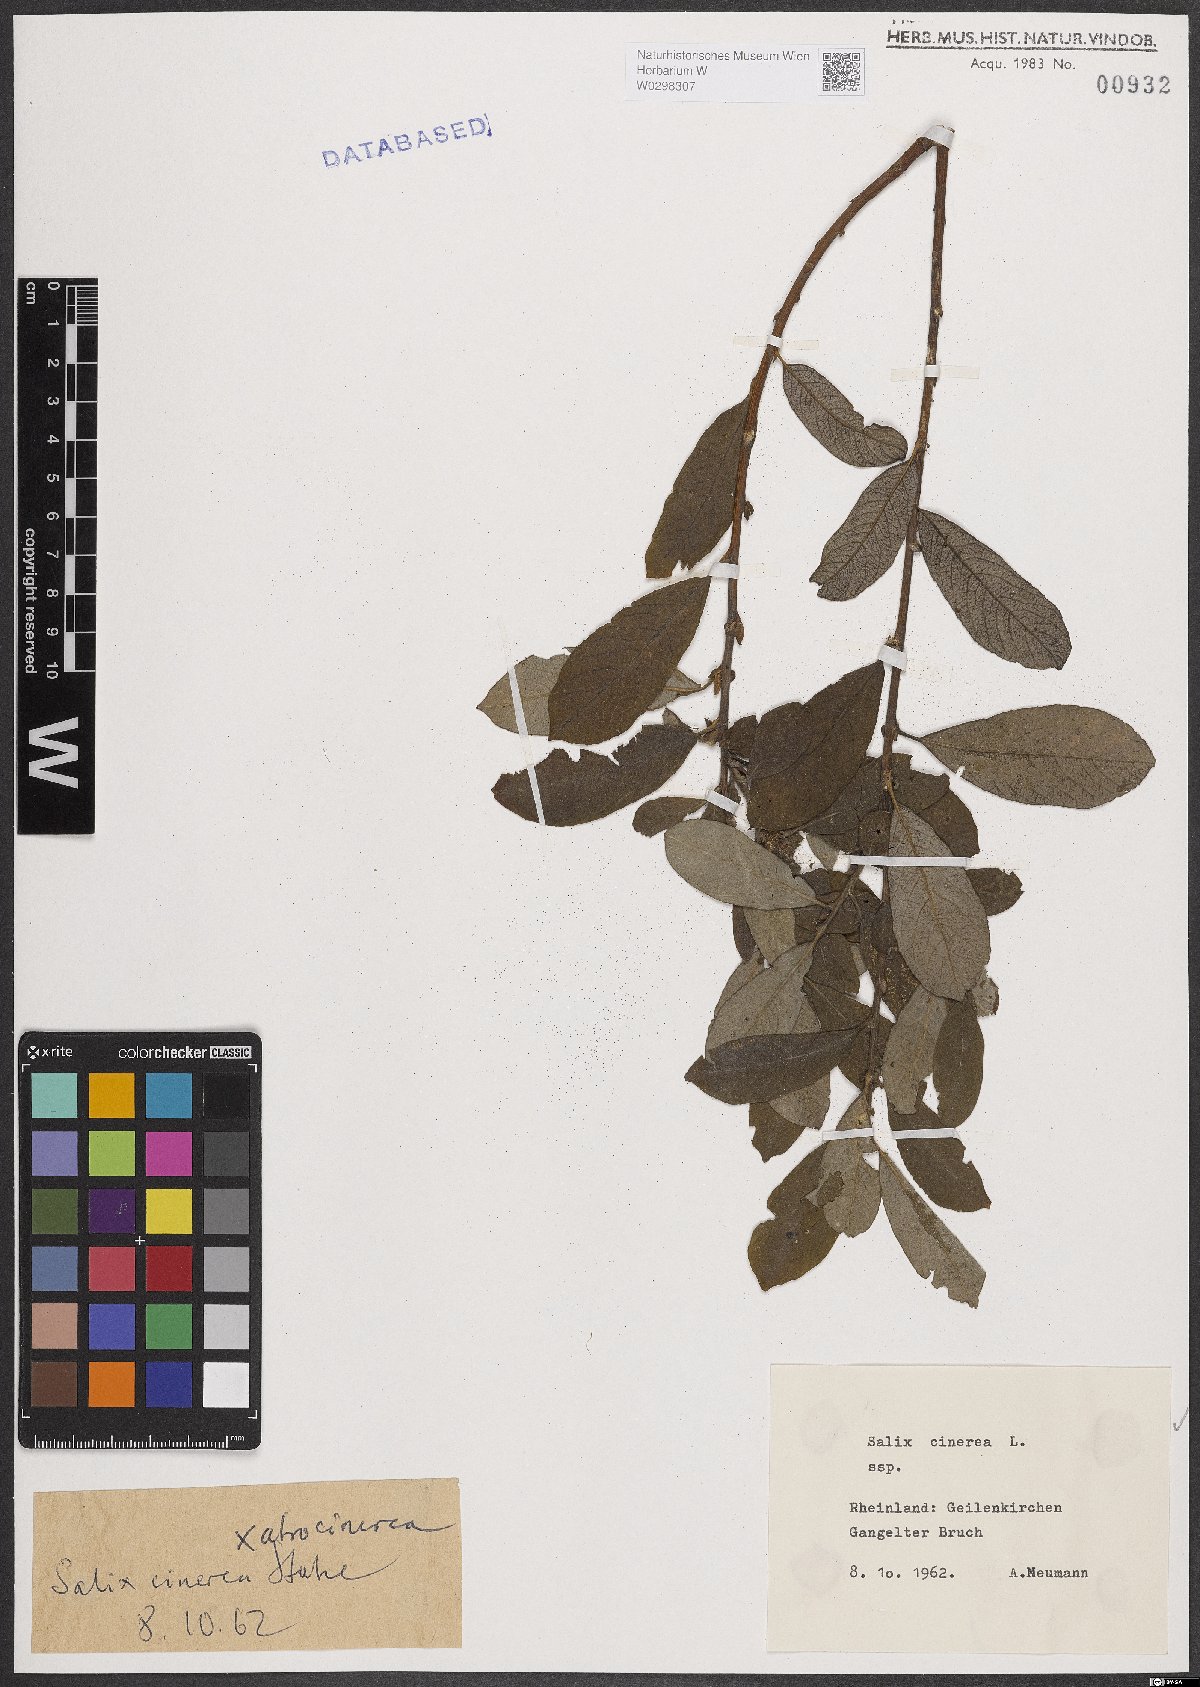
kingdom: Plantae
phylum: Tracheophyta
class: Magnoliopsida
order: Malpighiales
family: Salicaceae
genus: Salix
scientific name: Salix cinerea
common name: Common sallow
